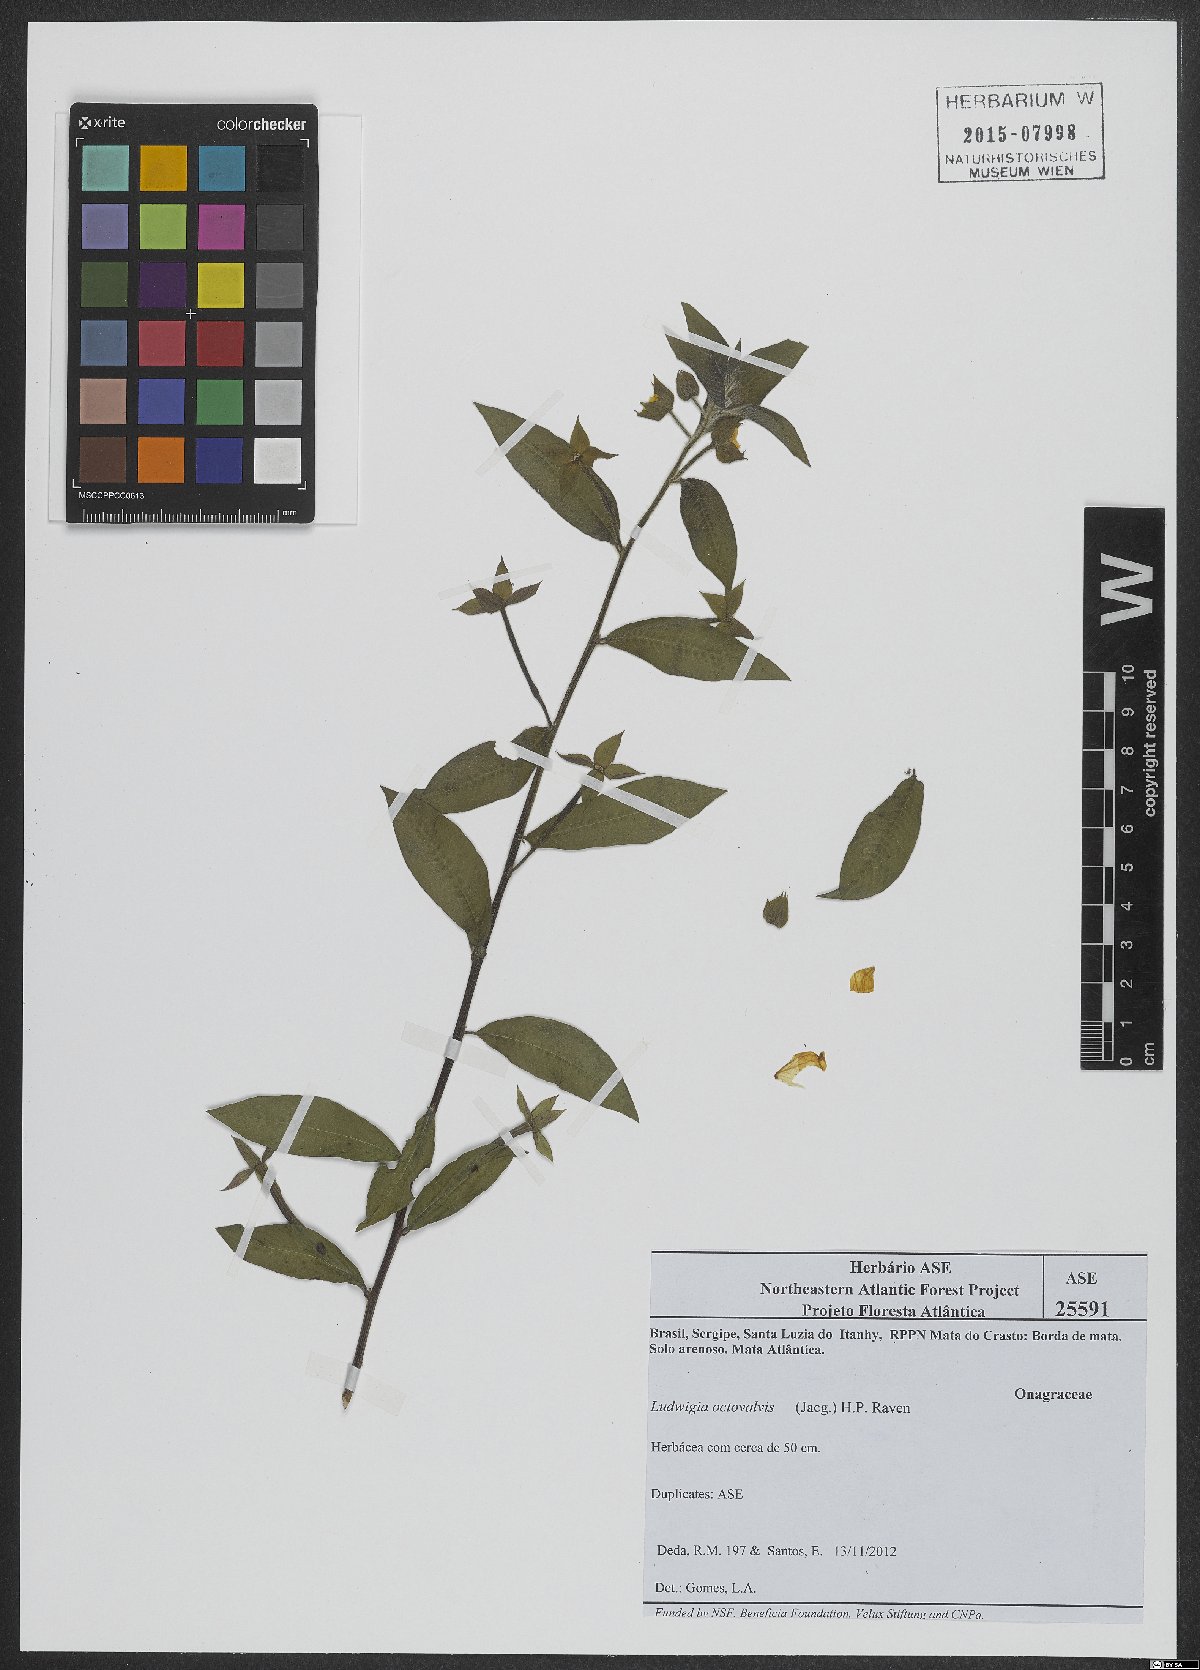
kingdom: Plantae
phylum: Tracheophyta
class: Magnoliopsida
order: Myrtales
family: Onagraceae
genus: Ludwigia
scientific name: Ludwigia octovalvis
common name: Water-primrose
